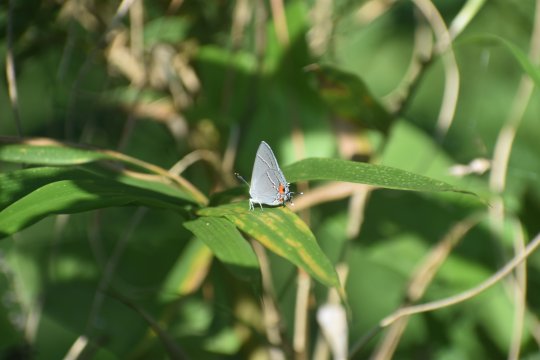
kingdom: Animalia
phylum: Arthropoda
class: Insecta
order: Lepidoptera
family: Lycaenidae
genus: Strymon
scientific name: Strymon melinus
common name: Gray Hairstreak
